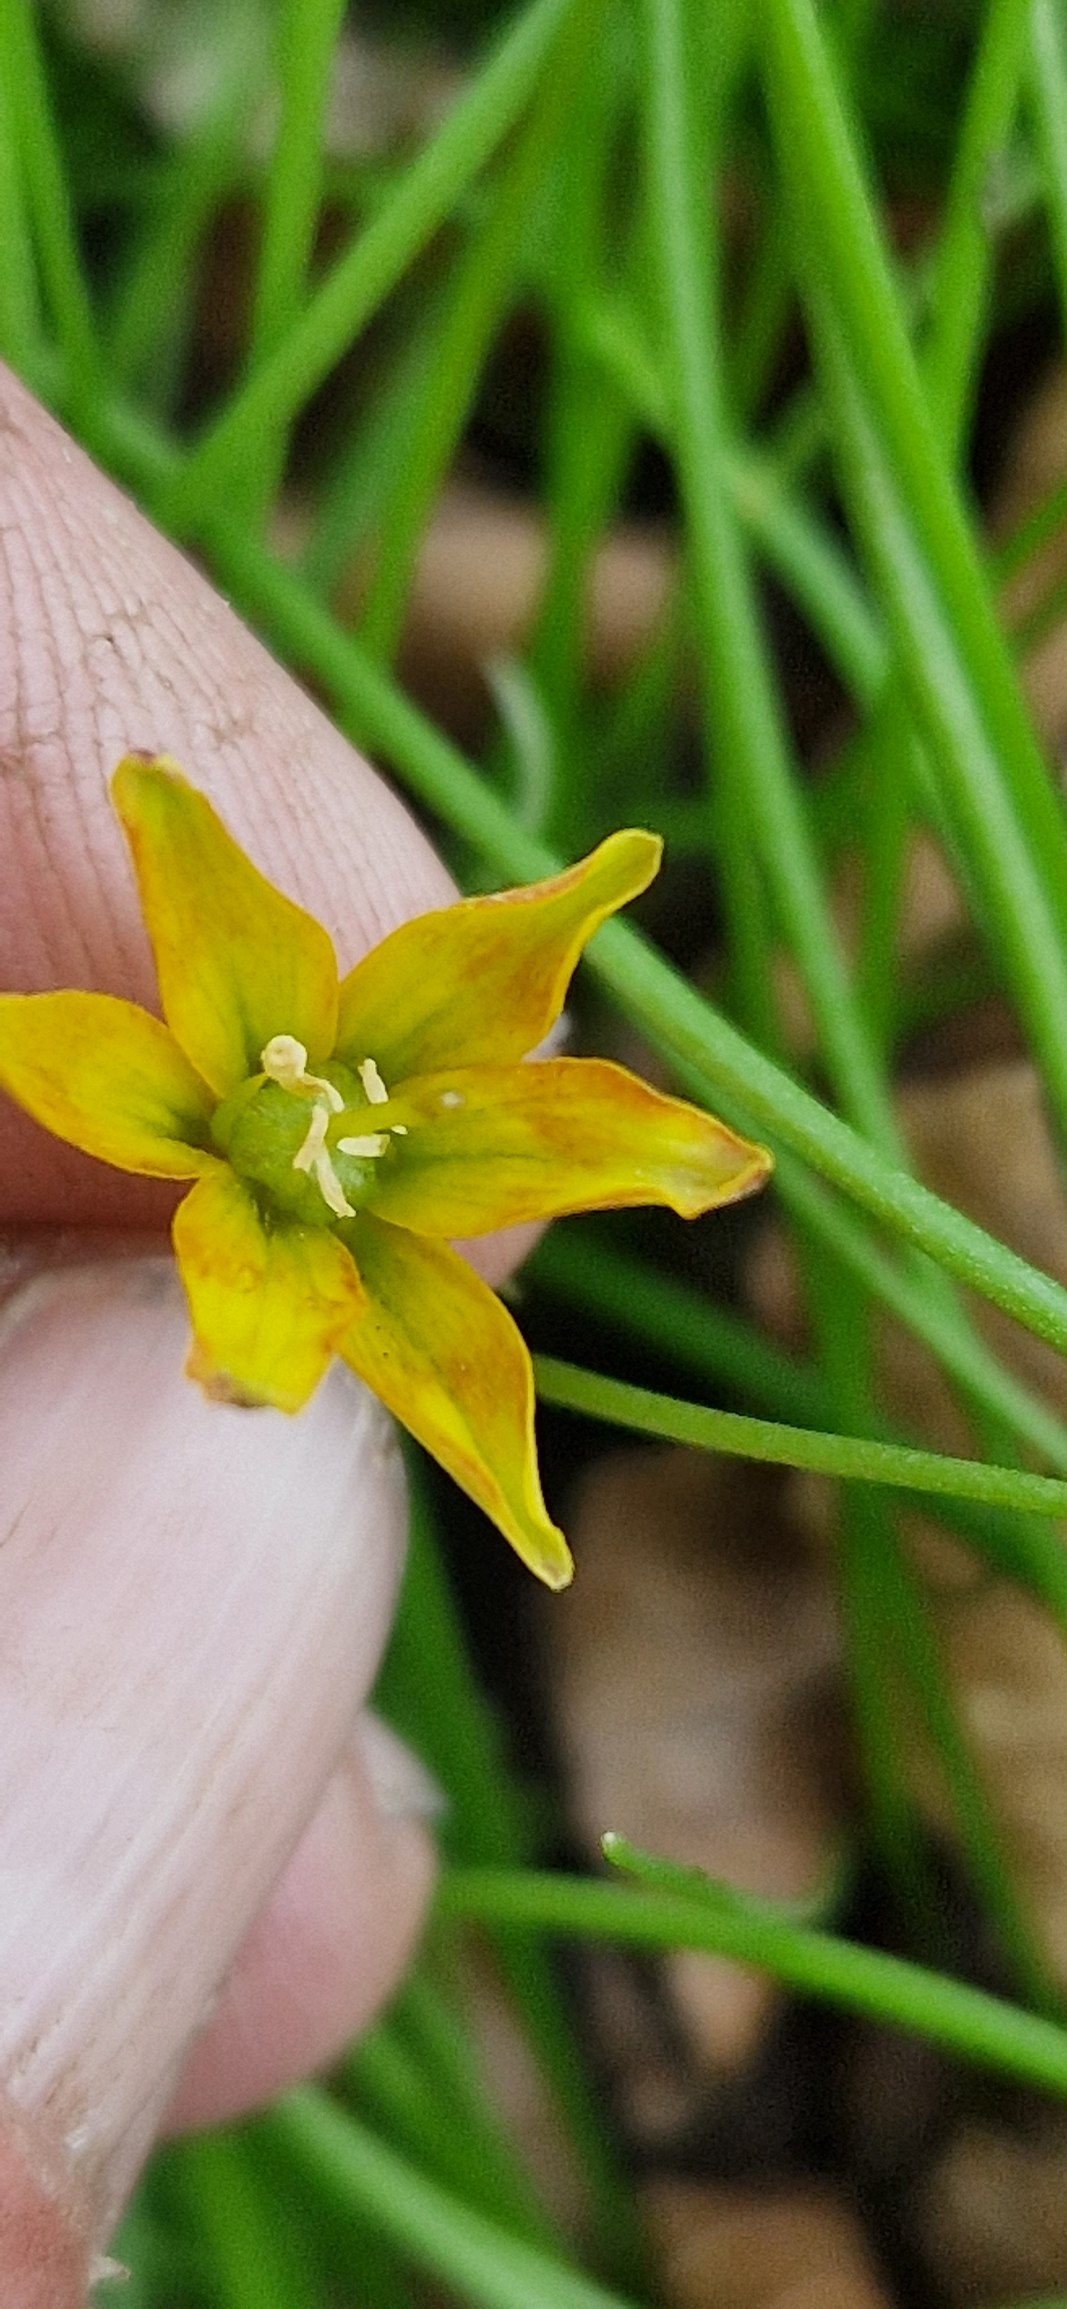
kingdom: Plantae
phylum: Tracheophyta
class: Liliopsida
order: Liliales
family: Liliaceae
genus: Gagea
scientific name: Gagea spathacea
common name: Hylster-guldstjerne
